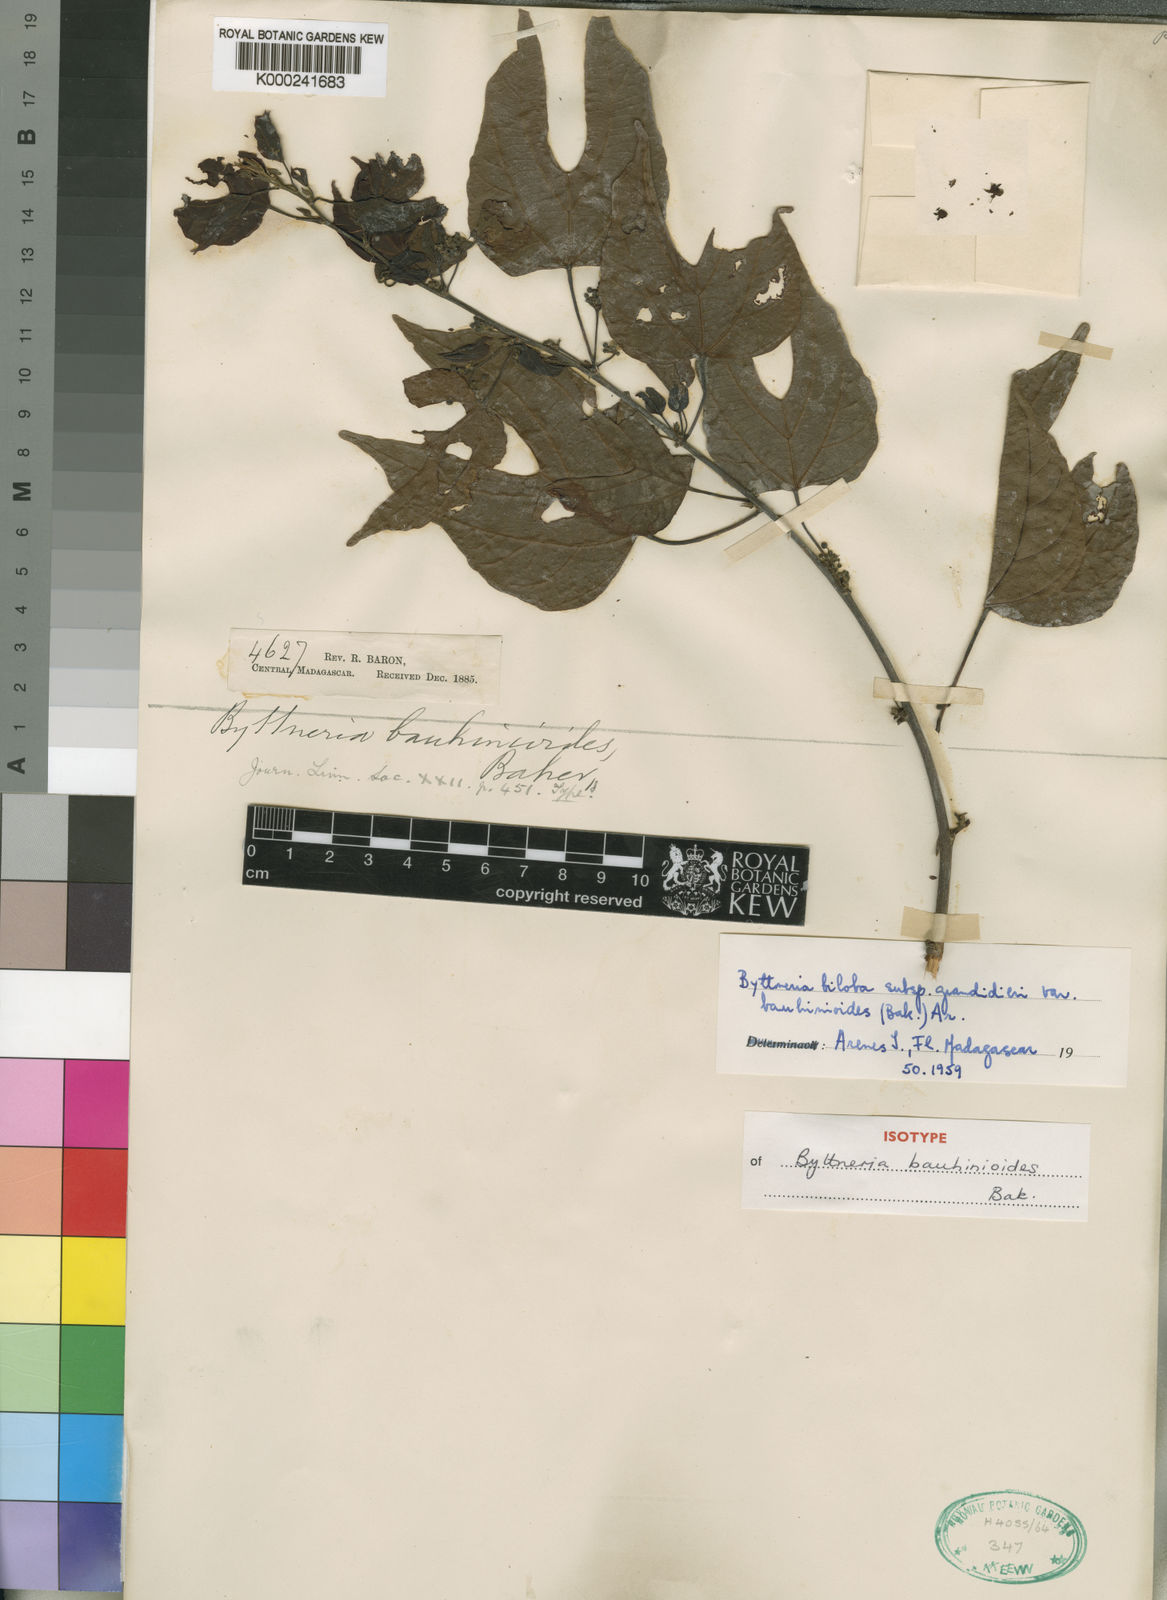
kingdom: Plantae
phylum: Tracheophyta
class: Magnoliopsida
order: Malvales
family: Malvaceae
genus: Byttneria
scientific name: Byttneria
